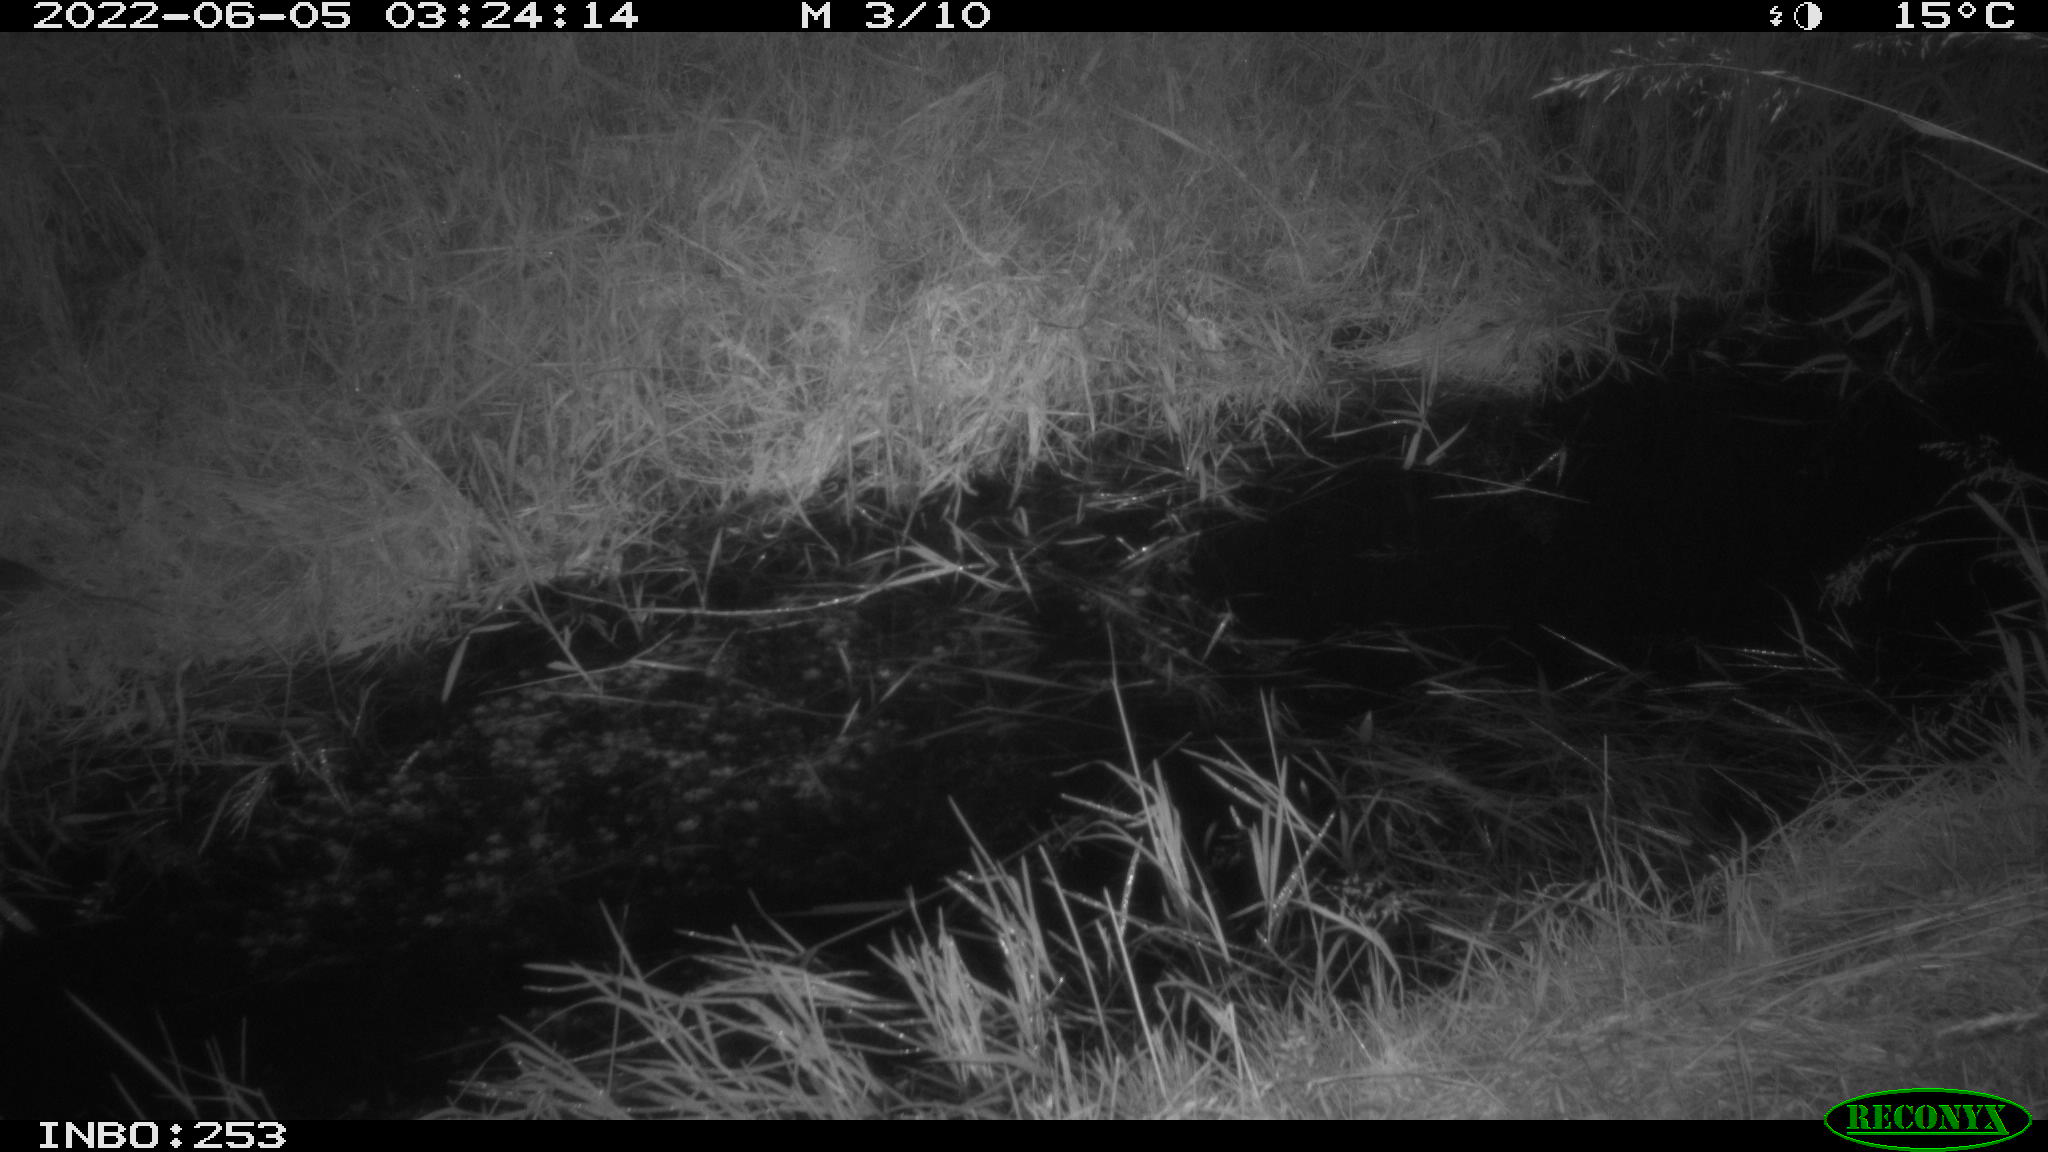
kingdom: Animalia
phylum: Chordata
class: Mammalia
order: Rodentia
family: Cricetidae
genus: Ondatra
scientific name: Ondatra zibethicus
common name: Muskrat
